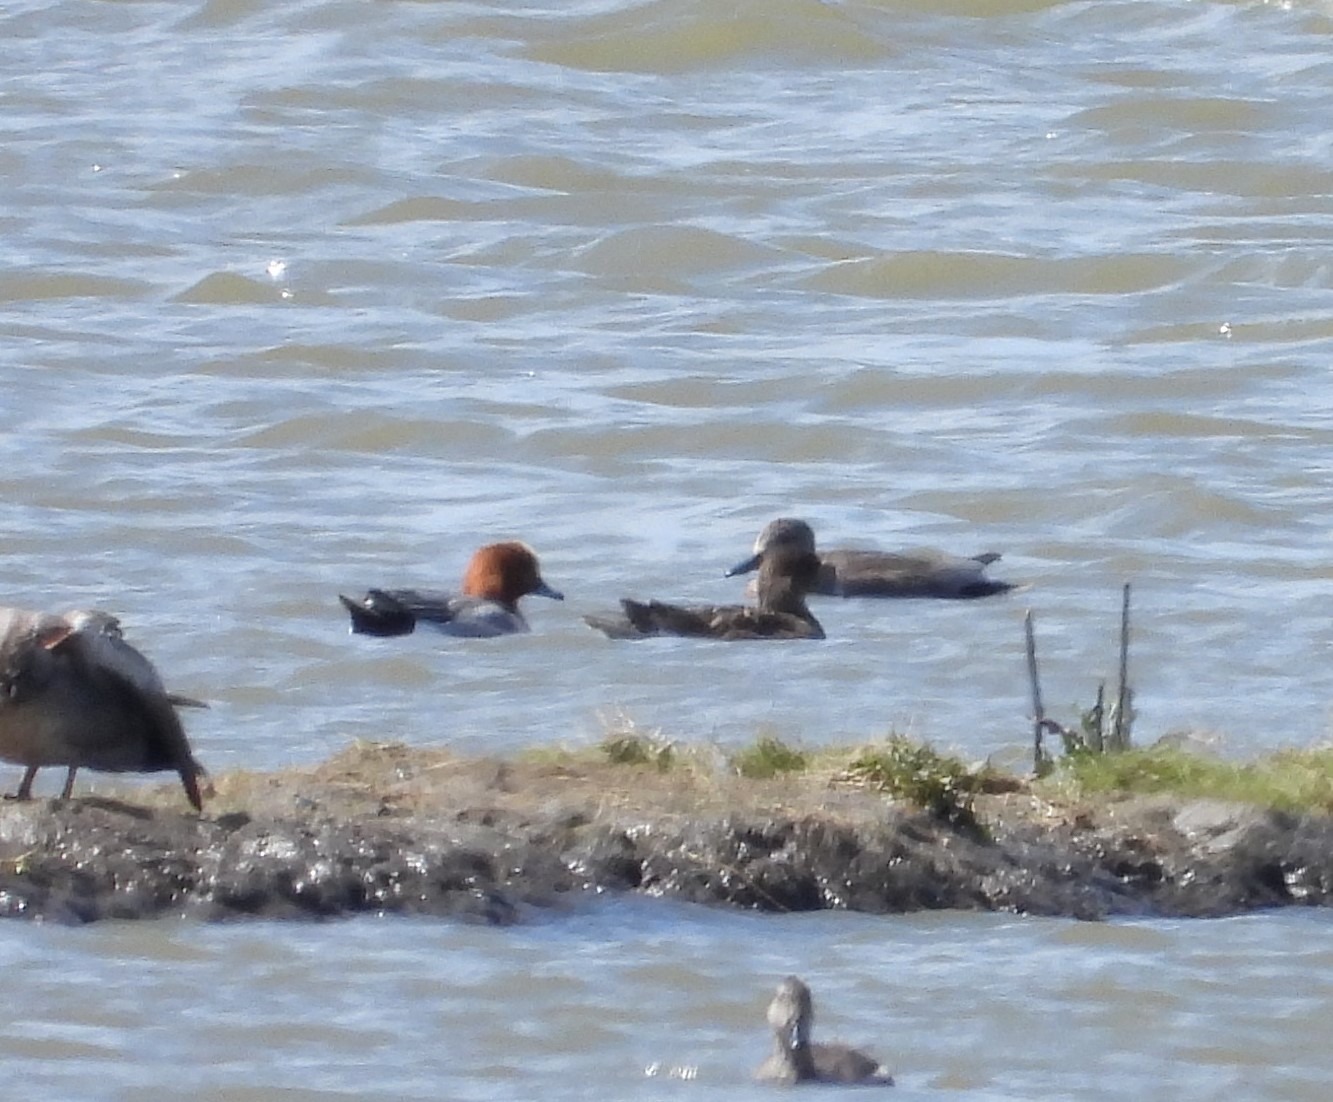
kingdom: Animalia
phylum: Chordata
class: Aves
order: Anseriformes
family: Anatidae
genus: Mareca
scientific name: Mareca penelope
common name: Pibeand
